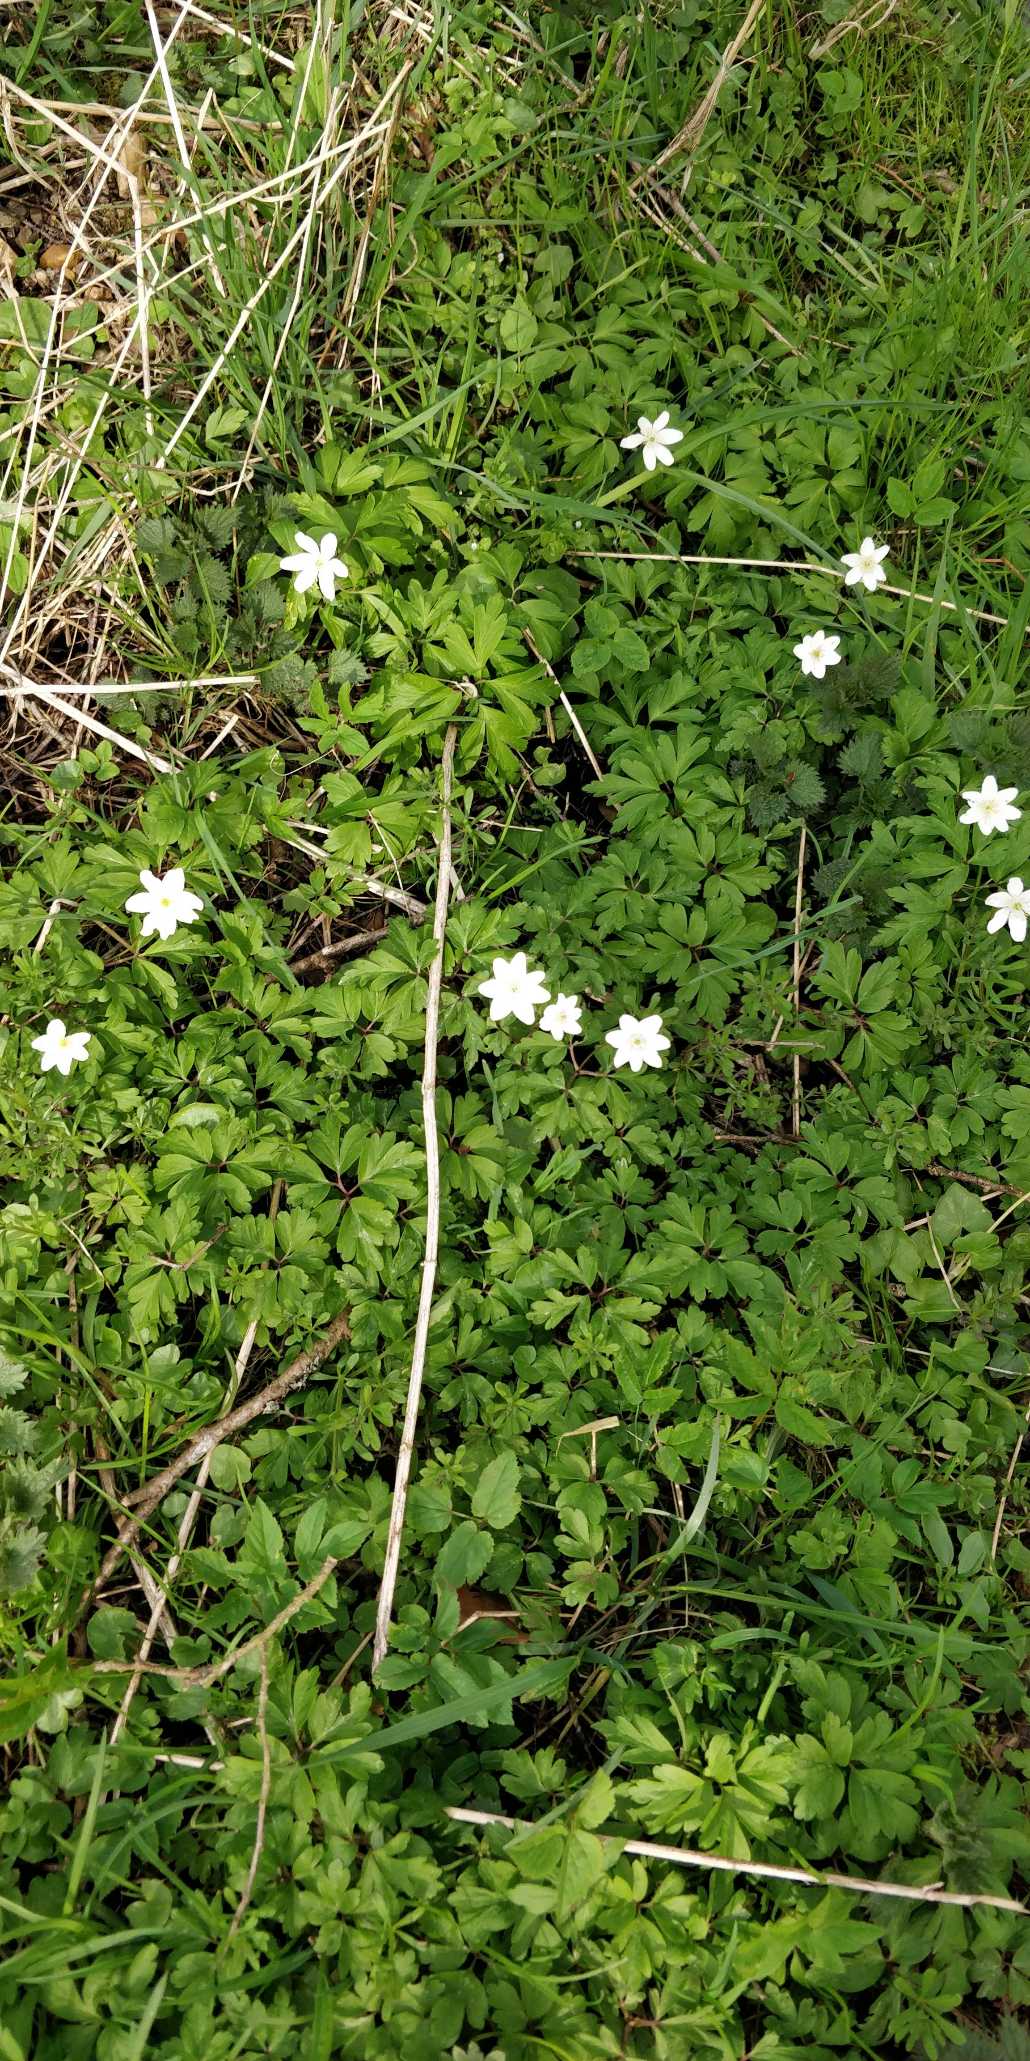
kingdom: Plantae
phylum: Tracheophyta
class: Magnoliopsida
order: Ranunculales
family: Ranunculaceae
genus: Anemone
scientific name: Anemone nemorosa
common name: Hvid anemone
